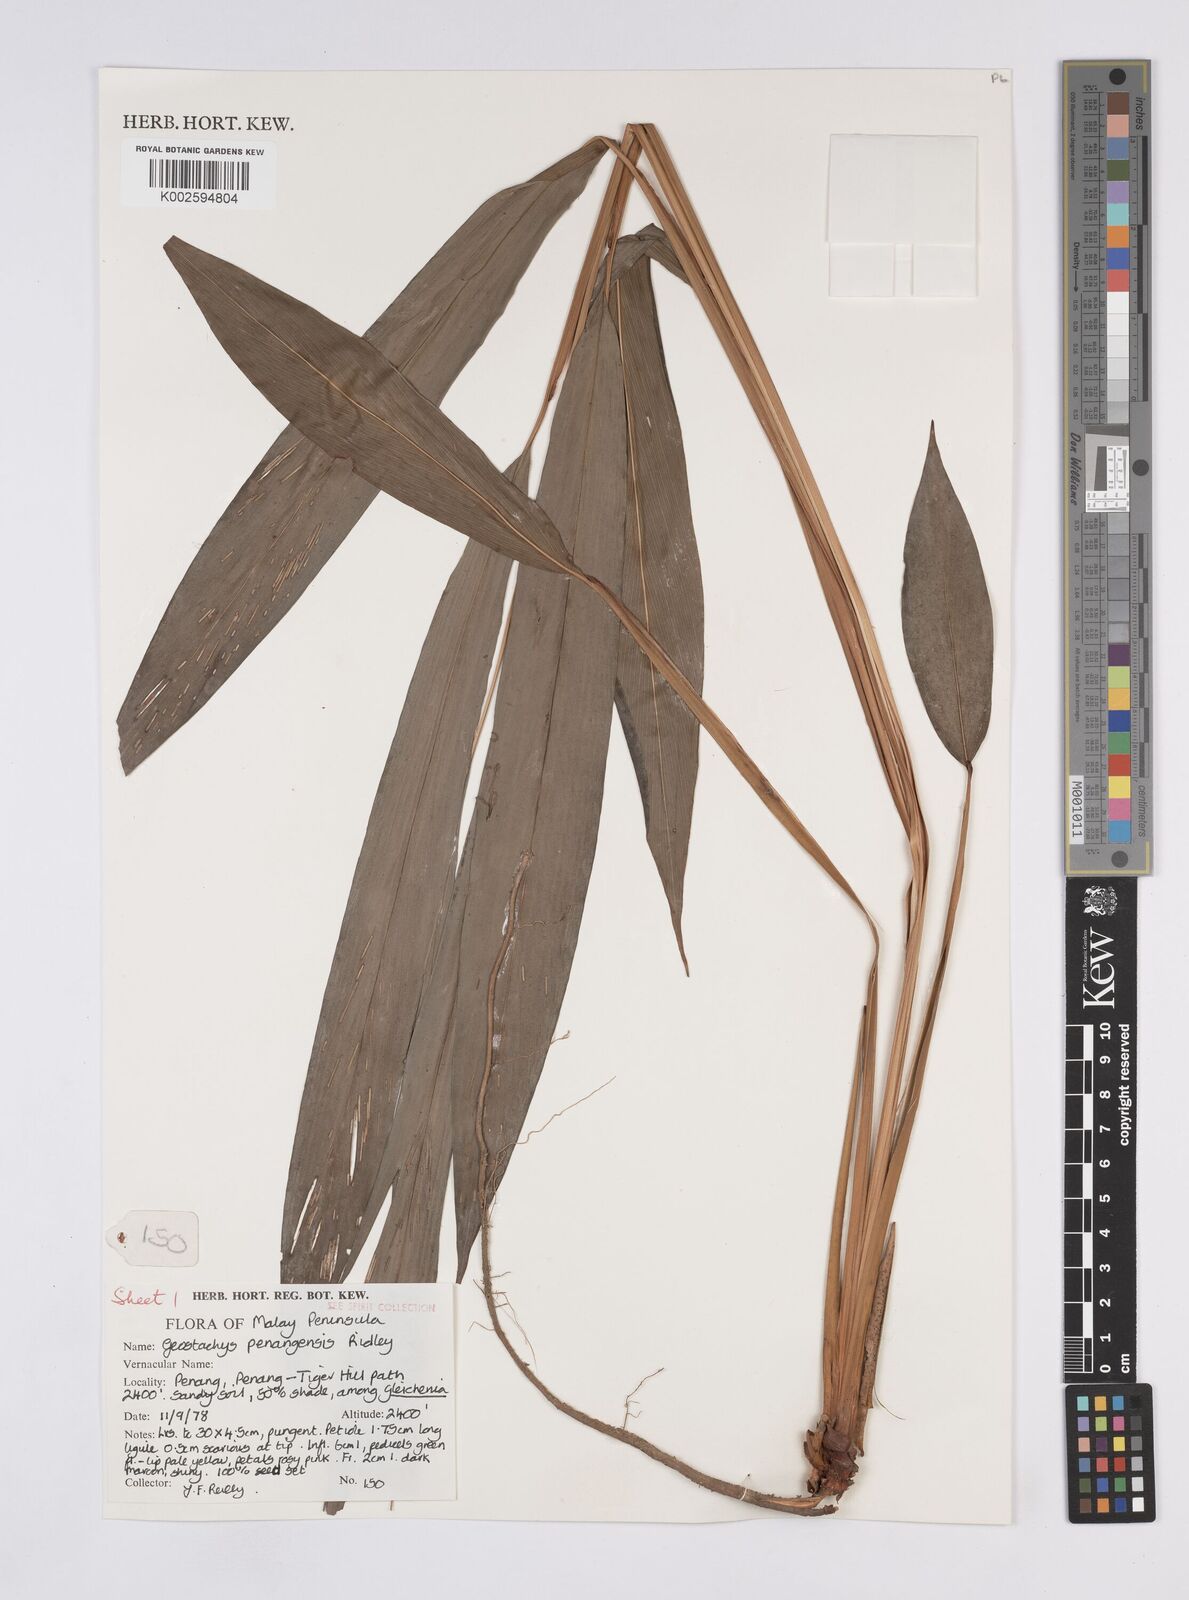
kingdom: Plantae
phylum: Tracheophyta
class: Liliopsida
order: Zingiberales
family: Zingiberaceae
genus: Geostachys
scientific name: Geostachys penangensis
